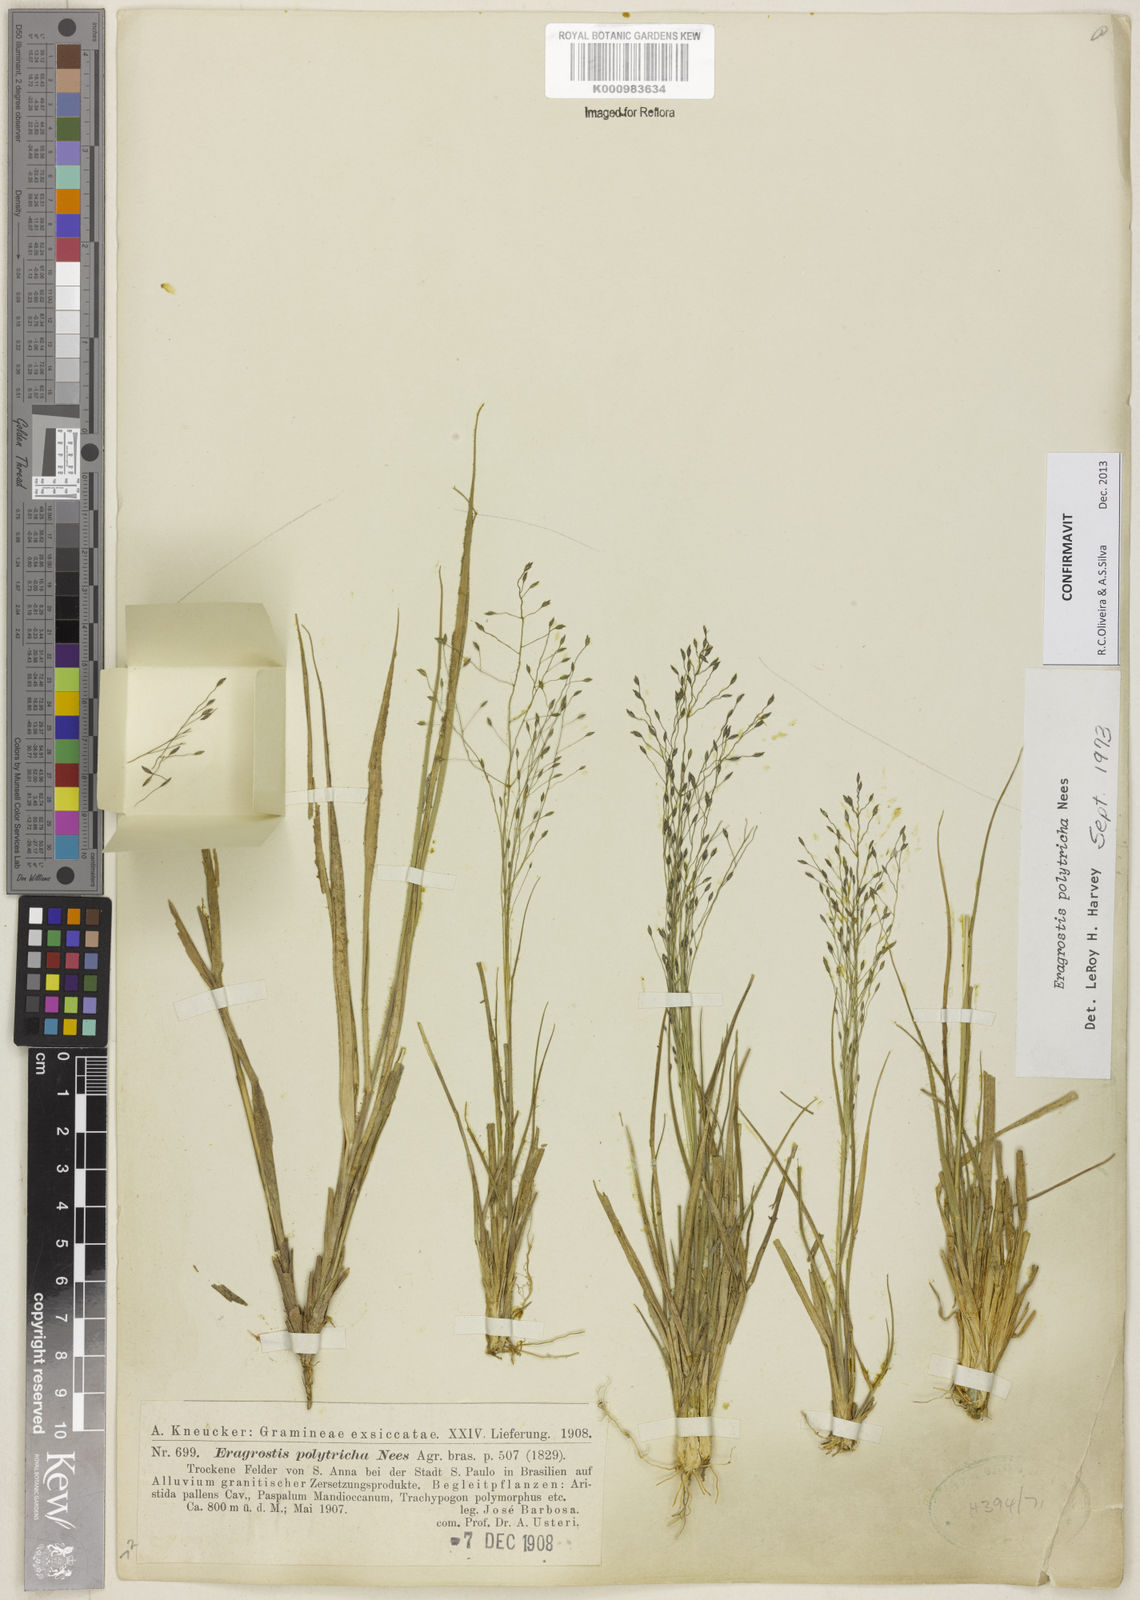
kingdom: Plantae
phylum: Tracheophyta
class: Liliopsida
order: Poales
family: Poaceae
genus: Eragrostis
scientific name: Eragrostis polytricha
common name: Hairy-sheath love grass
